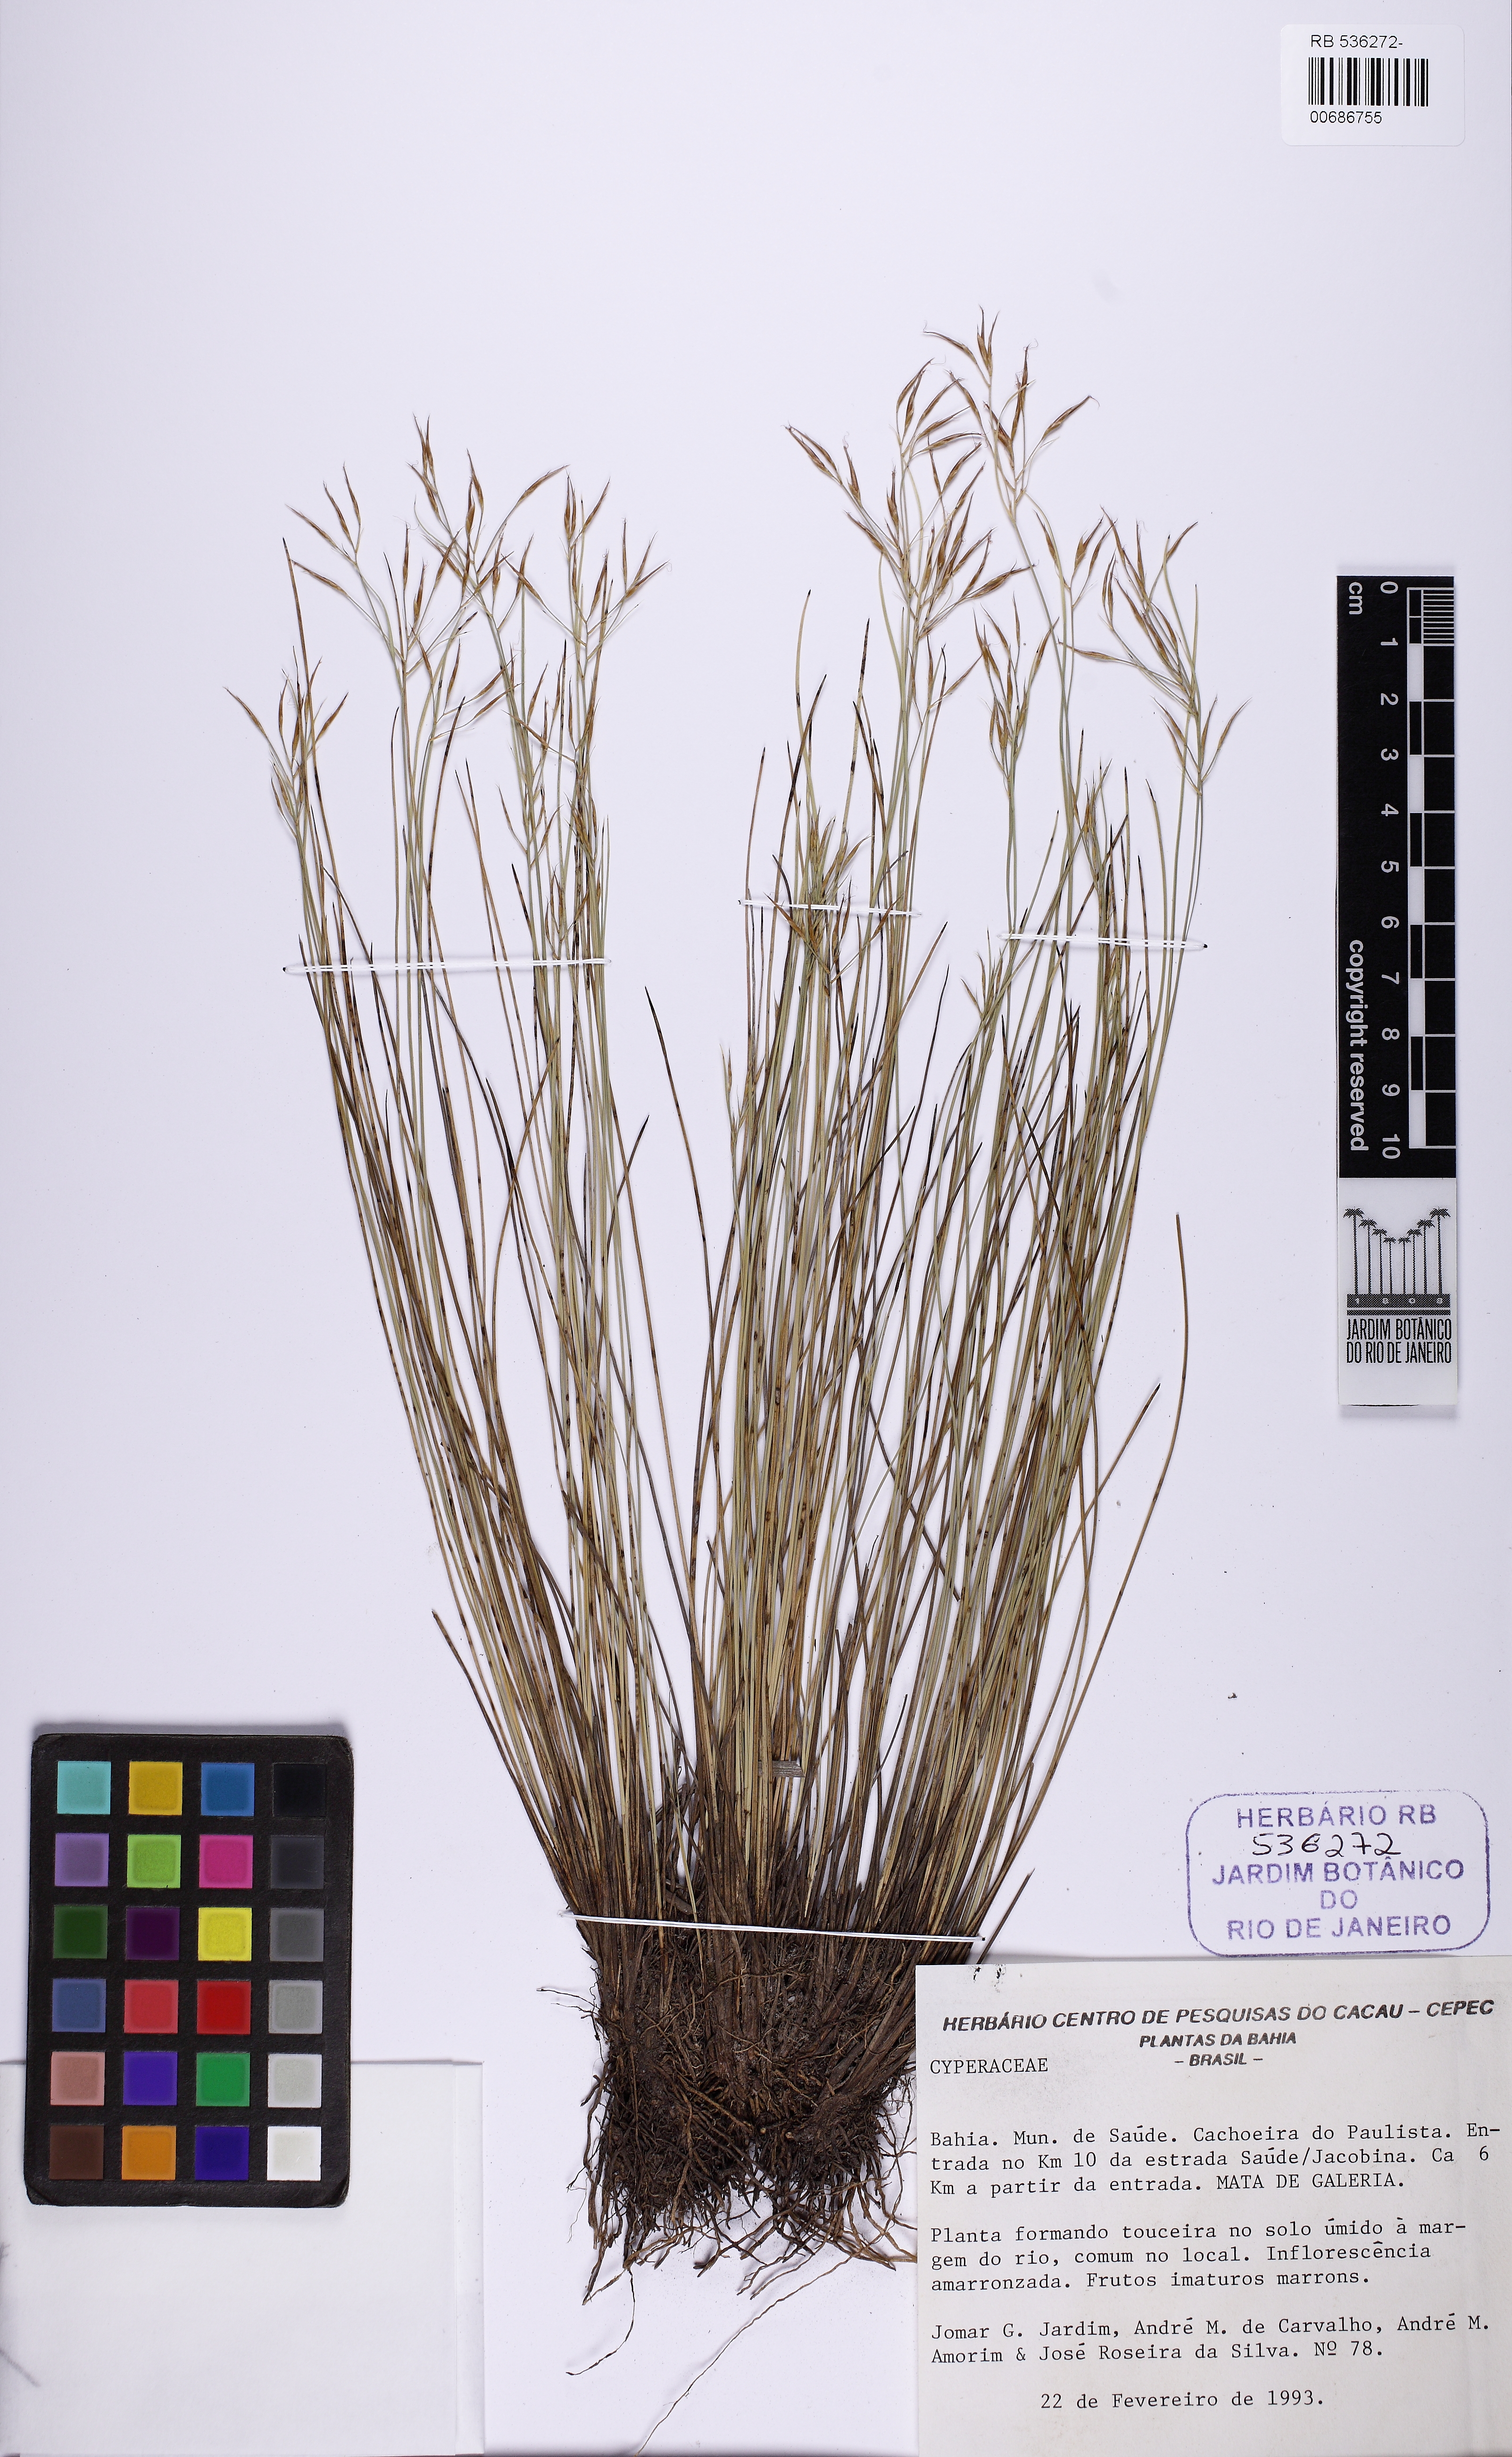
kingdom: Plantae
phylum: Tracheophyta
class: Liliopsida
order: Poales
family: Cyperaceae
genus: Rhynchospora
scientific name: Rhynchospora filiformis
